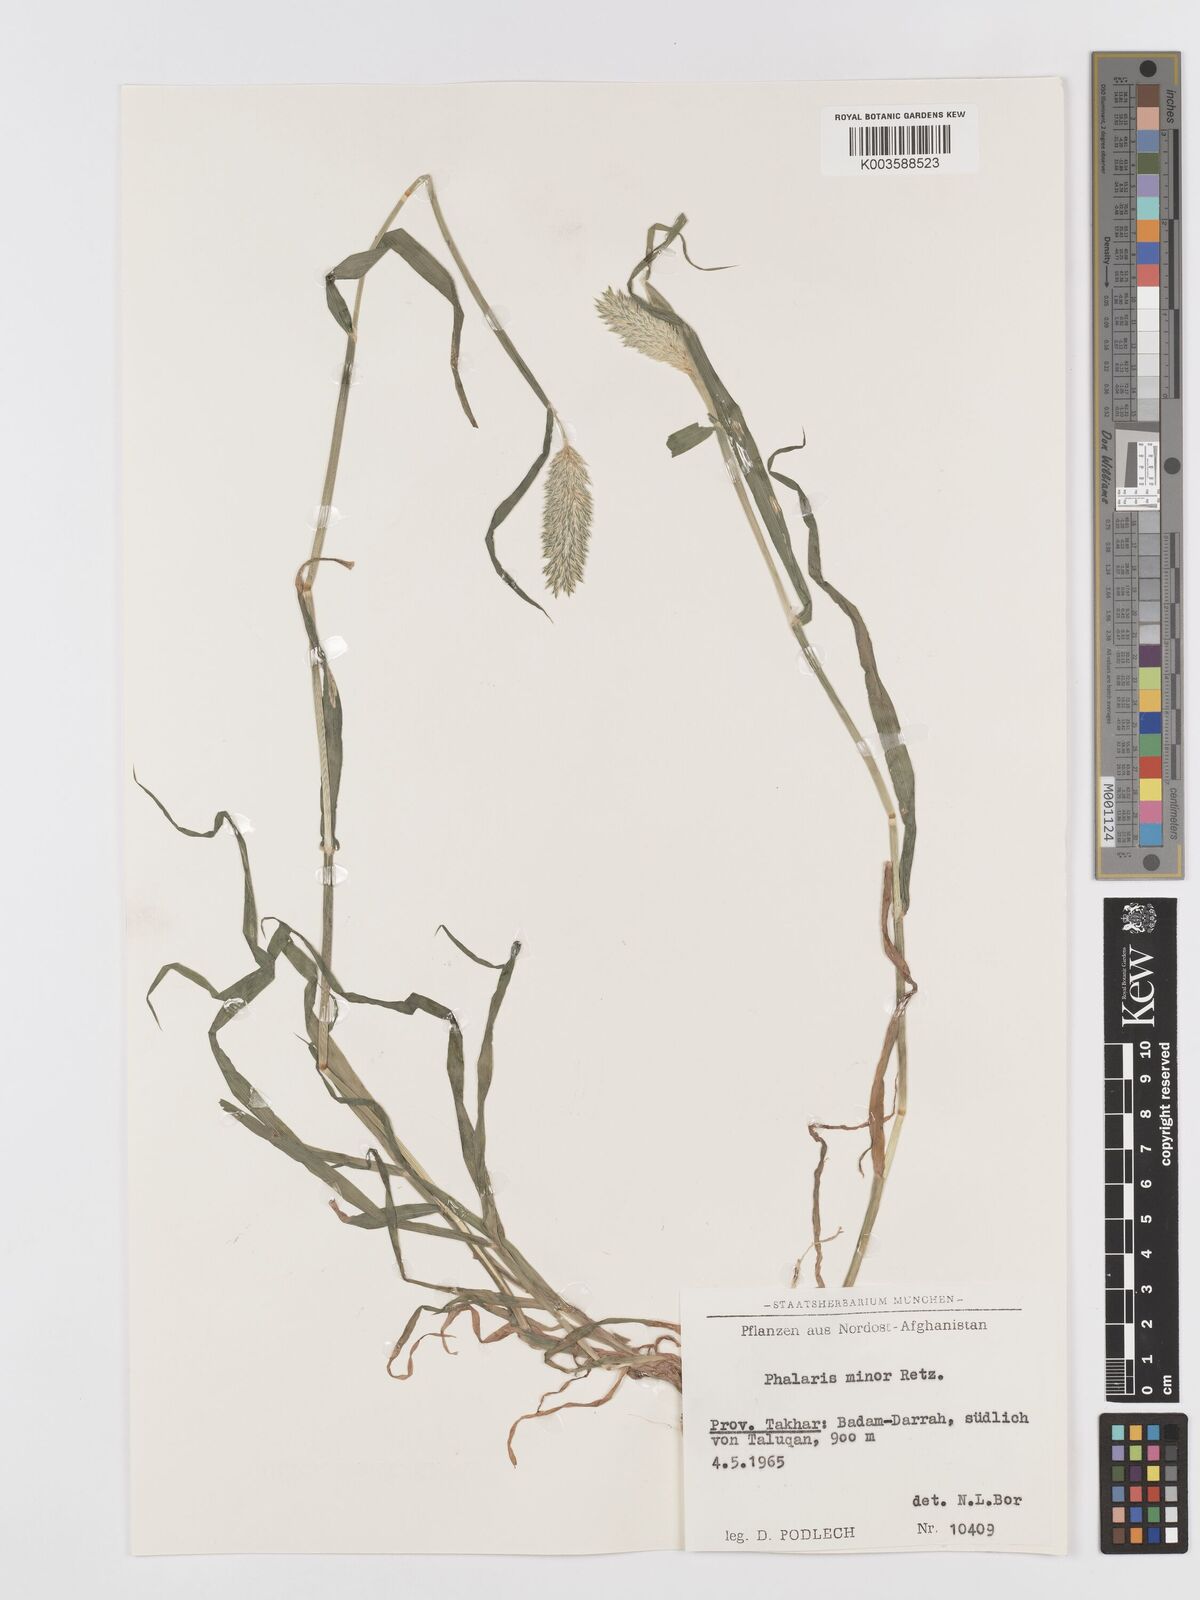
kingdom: Plantae
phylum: Tracheophyta
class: Liliopsida
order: Poales
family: Poaceae
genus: Phalaris
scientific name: Phalaris minor
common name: Littleseed canarygrass
